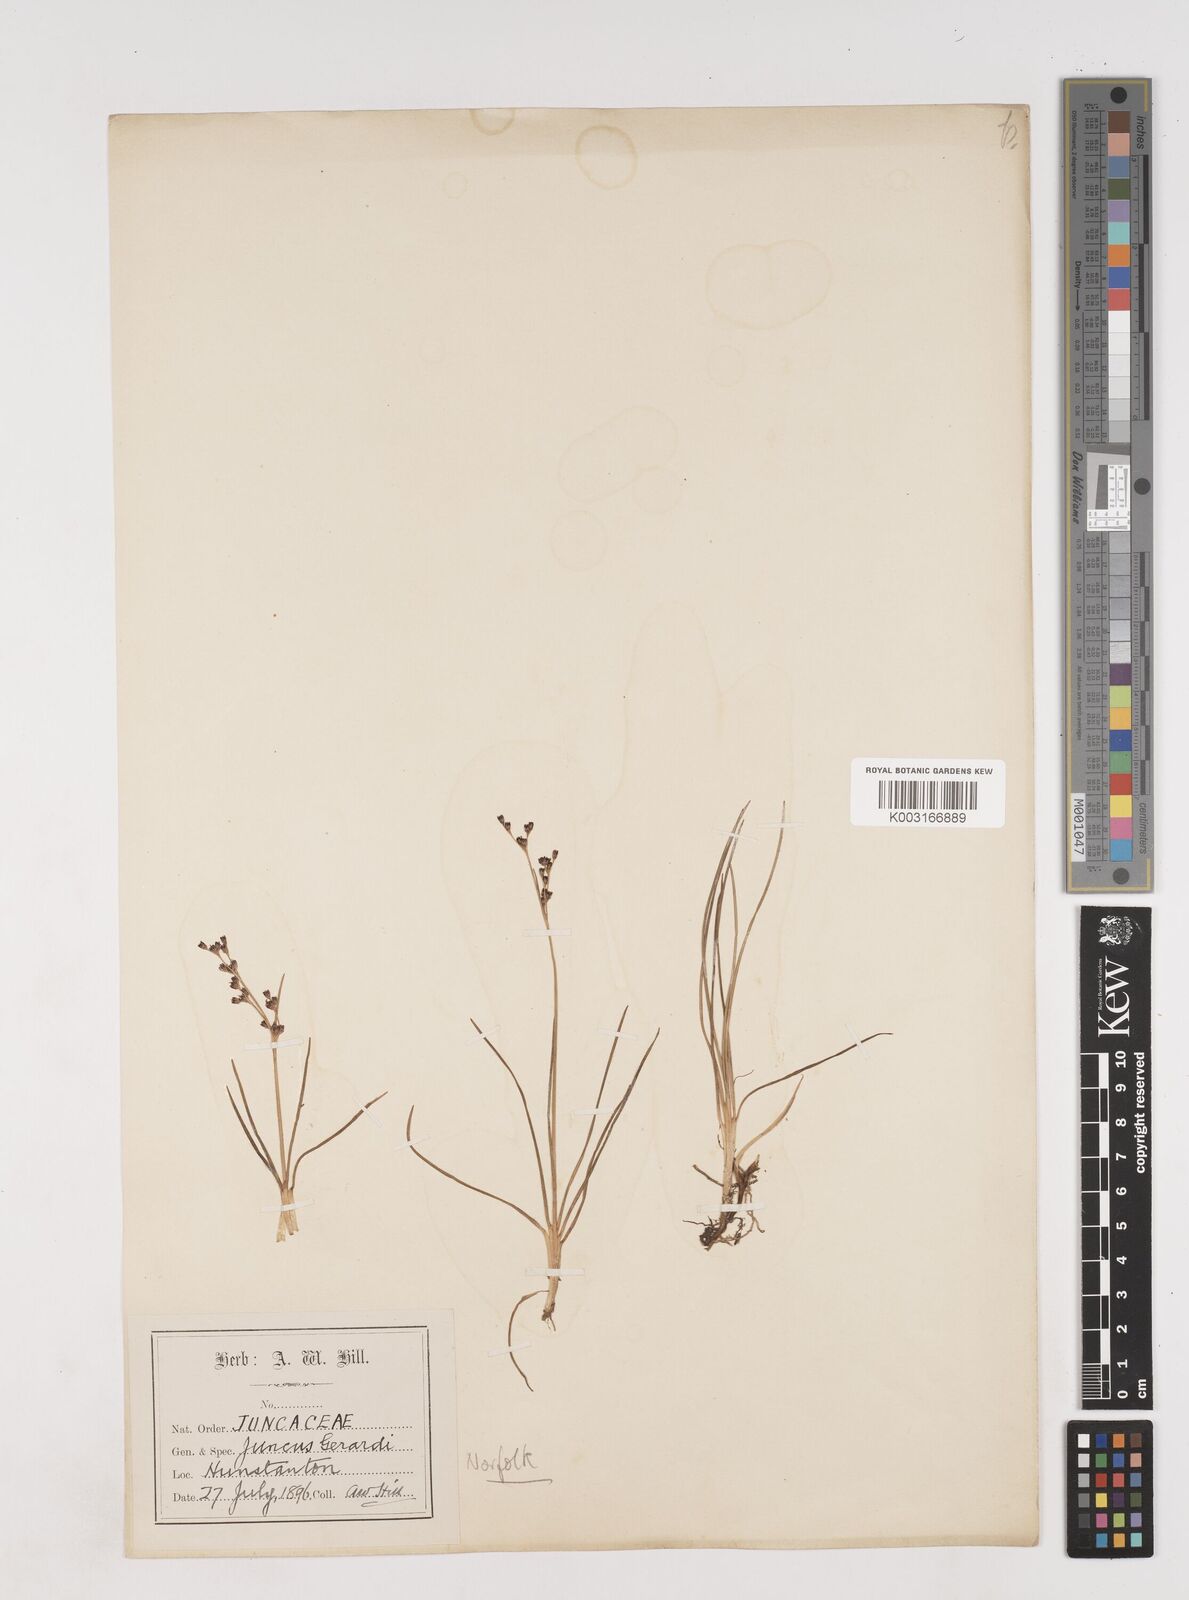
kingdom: Plantae
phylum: Tracheophyta
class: Liliopsida
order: Poales
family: Juncaceae
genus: Juncus
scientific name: Juncus gerardi
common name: Saltmarsh rush
